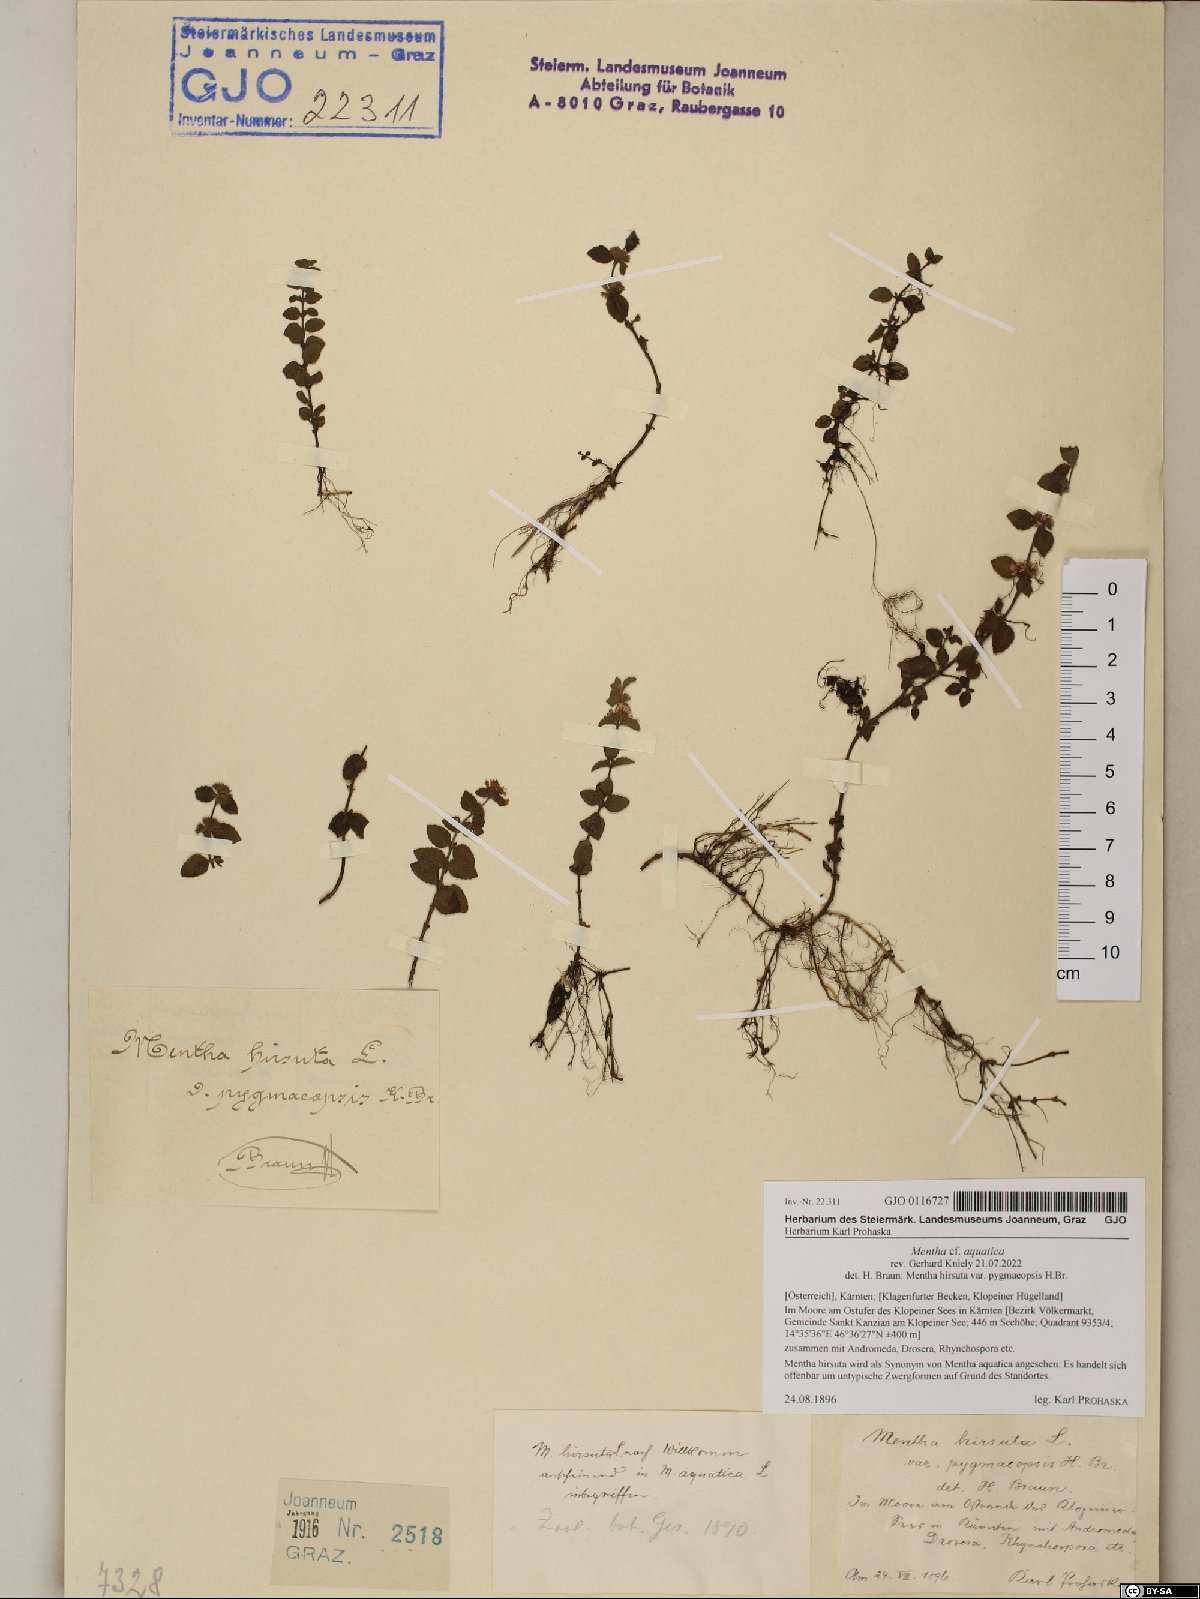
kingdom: Plantae
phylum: Tracheophyta
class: Magnoliopsida
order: Lamiales
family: Lamiaceae
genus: Mentha
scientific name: Mentha aquatica
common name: Water mint
